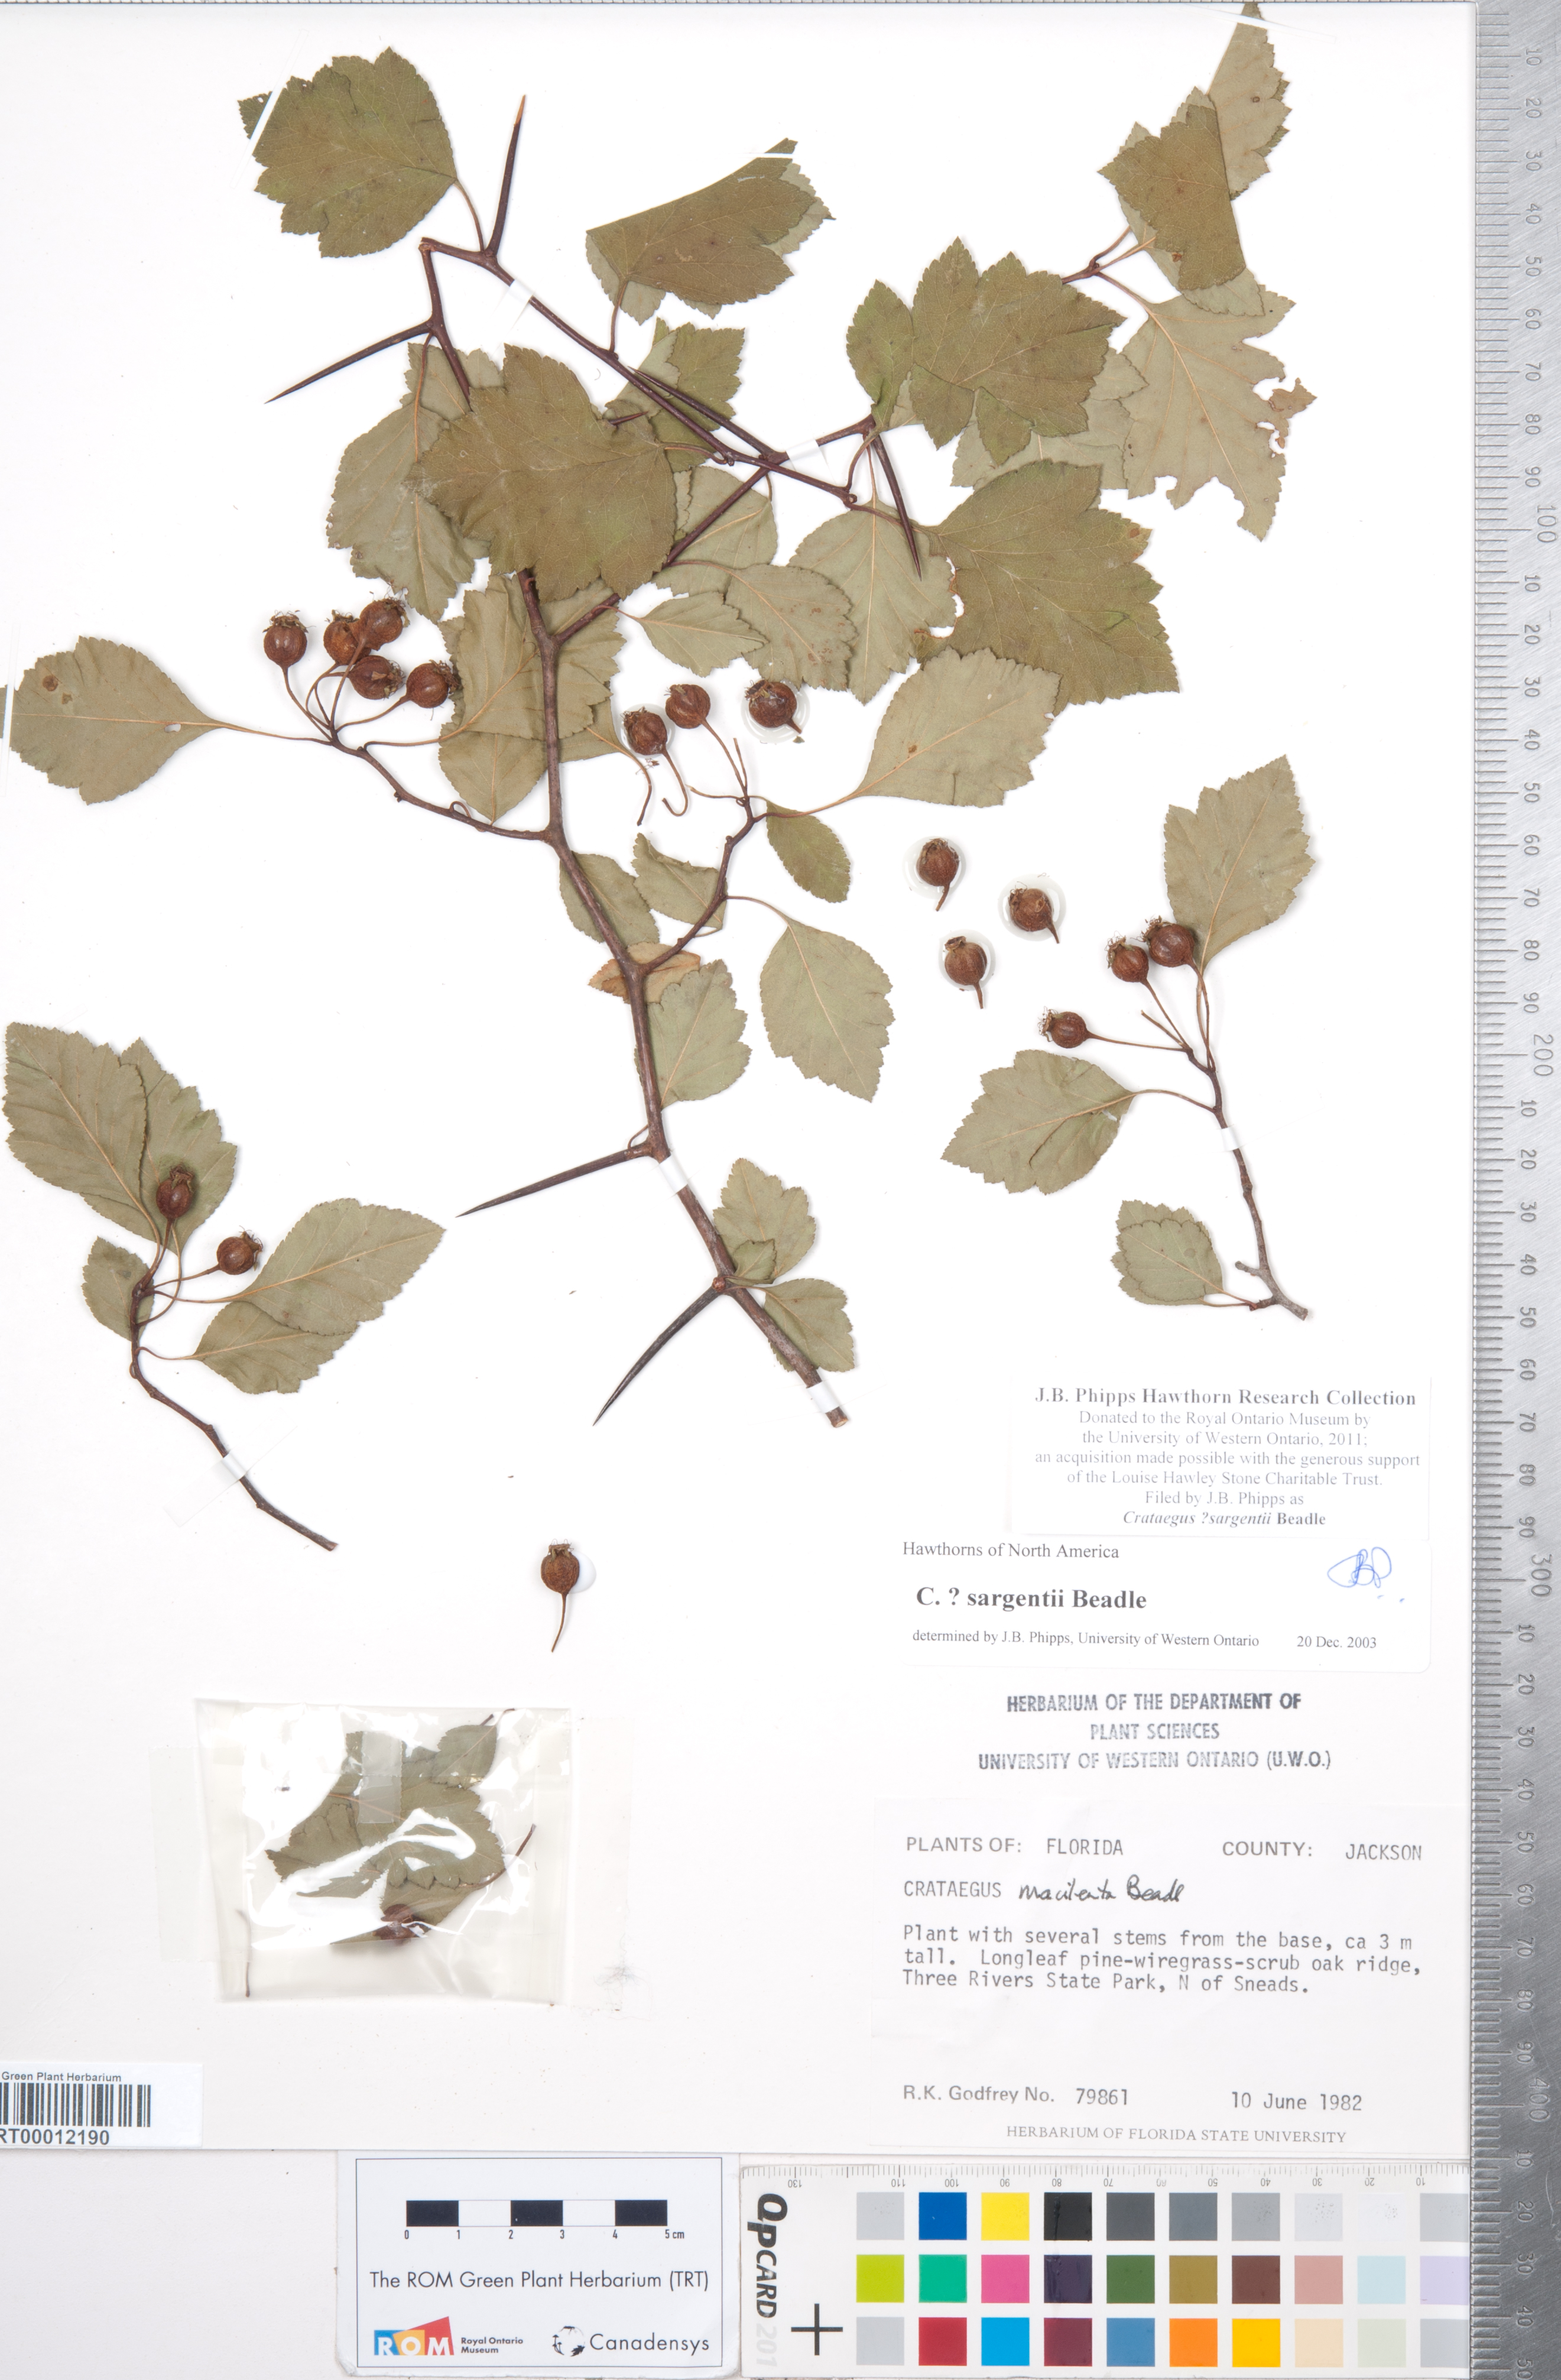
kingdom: Plantae
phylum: Tracheophyta
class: Magnoliopsida
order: Rosales
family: Rosaceae
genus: Crataegus
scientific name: Crataegus sargentii
